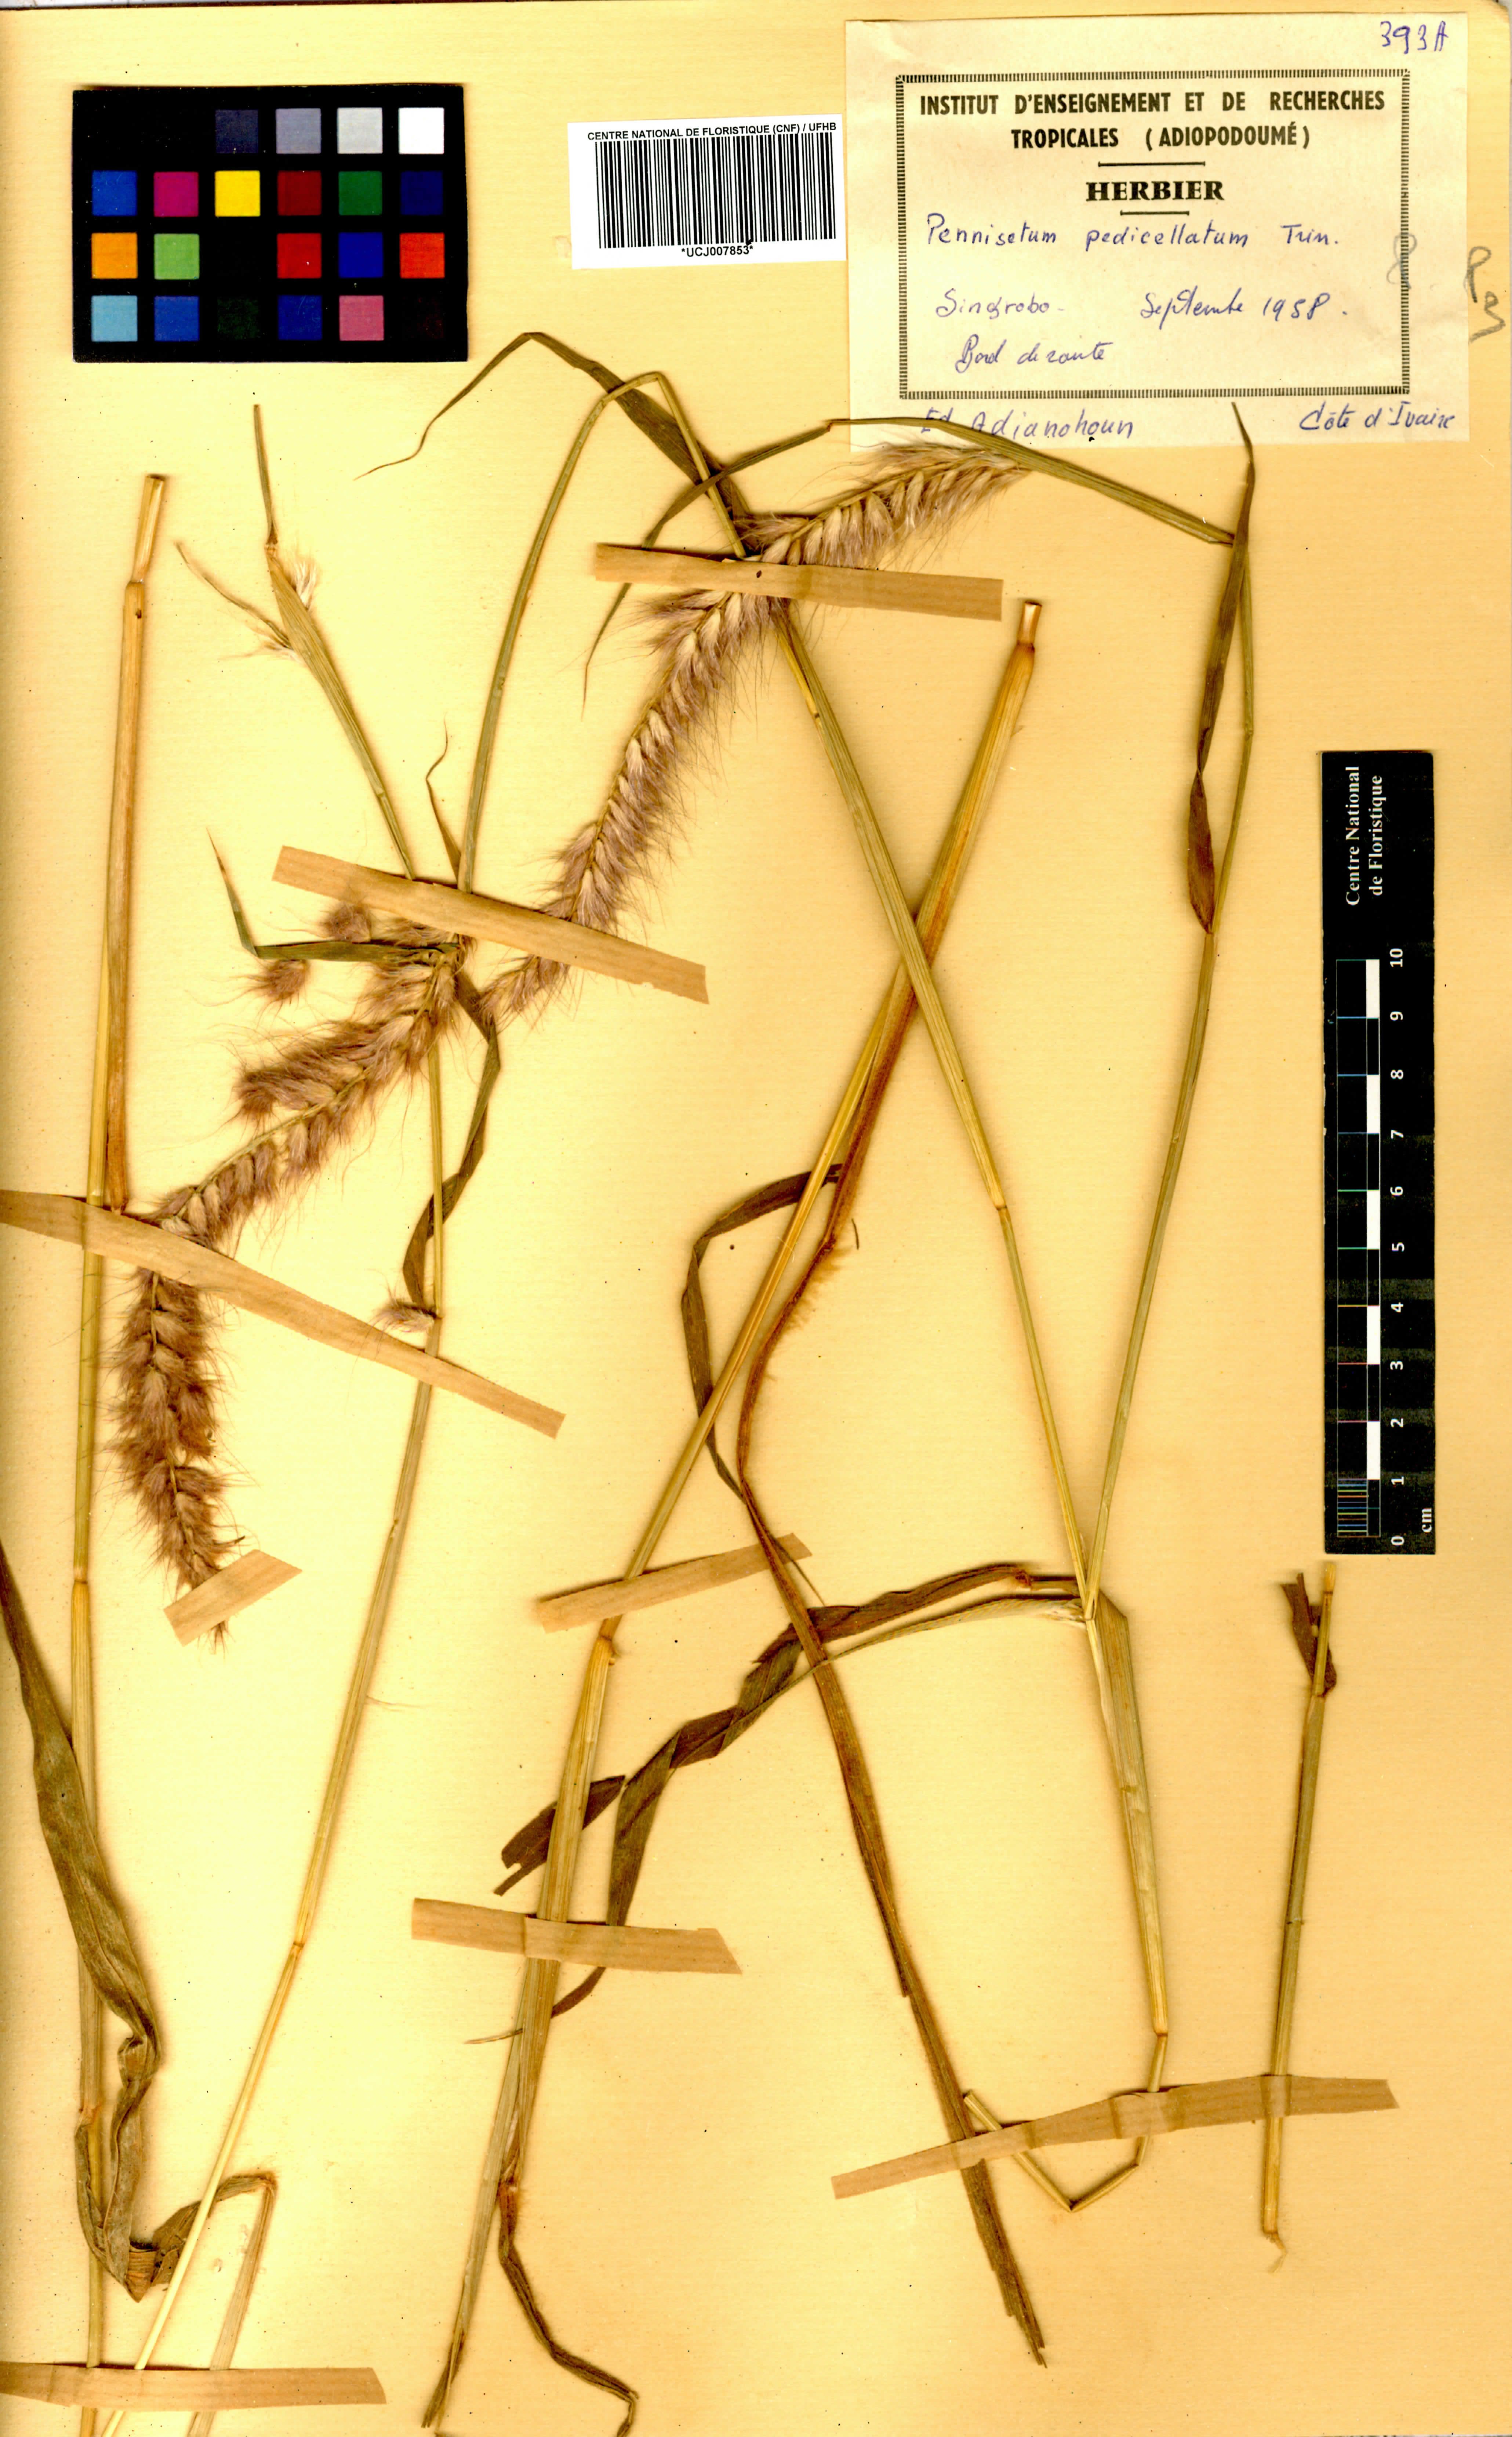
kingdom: Plantae
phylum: Tracheophyta
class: Liliopsida
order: Poales
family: Poaceae
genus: Cenchrus
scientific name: Cenchrus pedicellatus
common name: Hairy fountain grass
